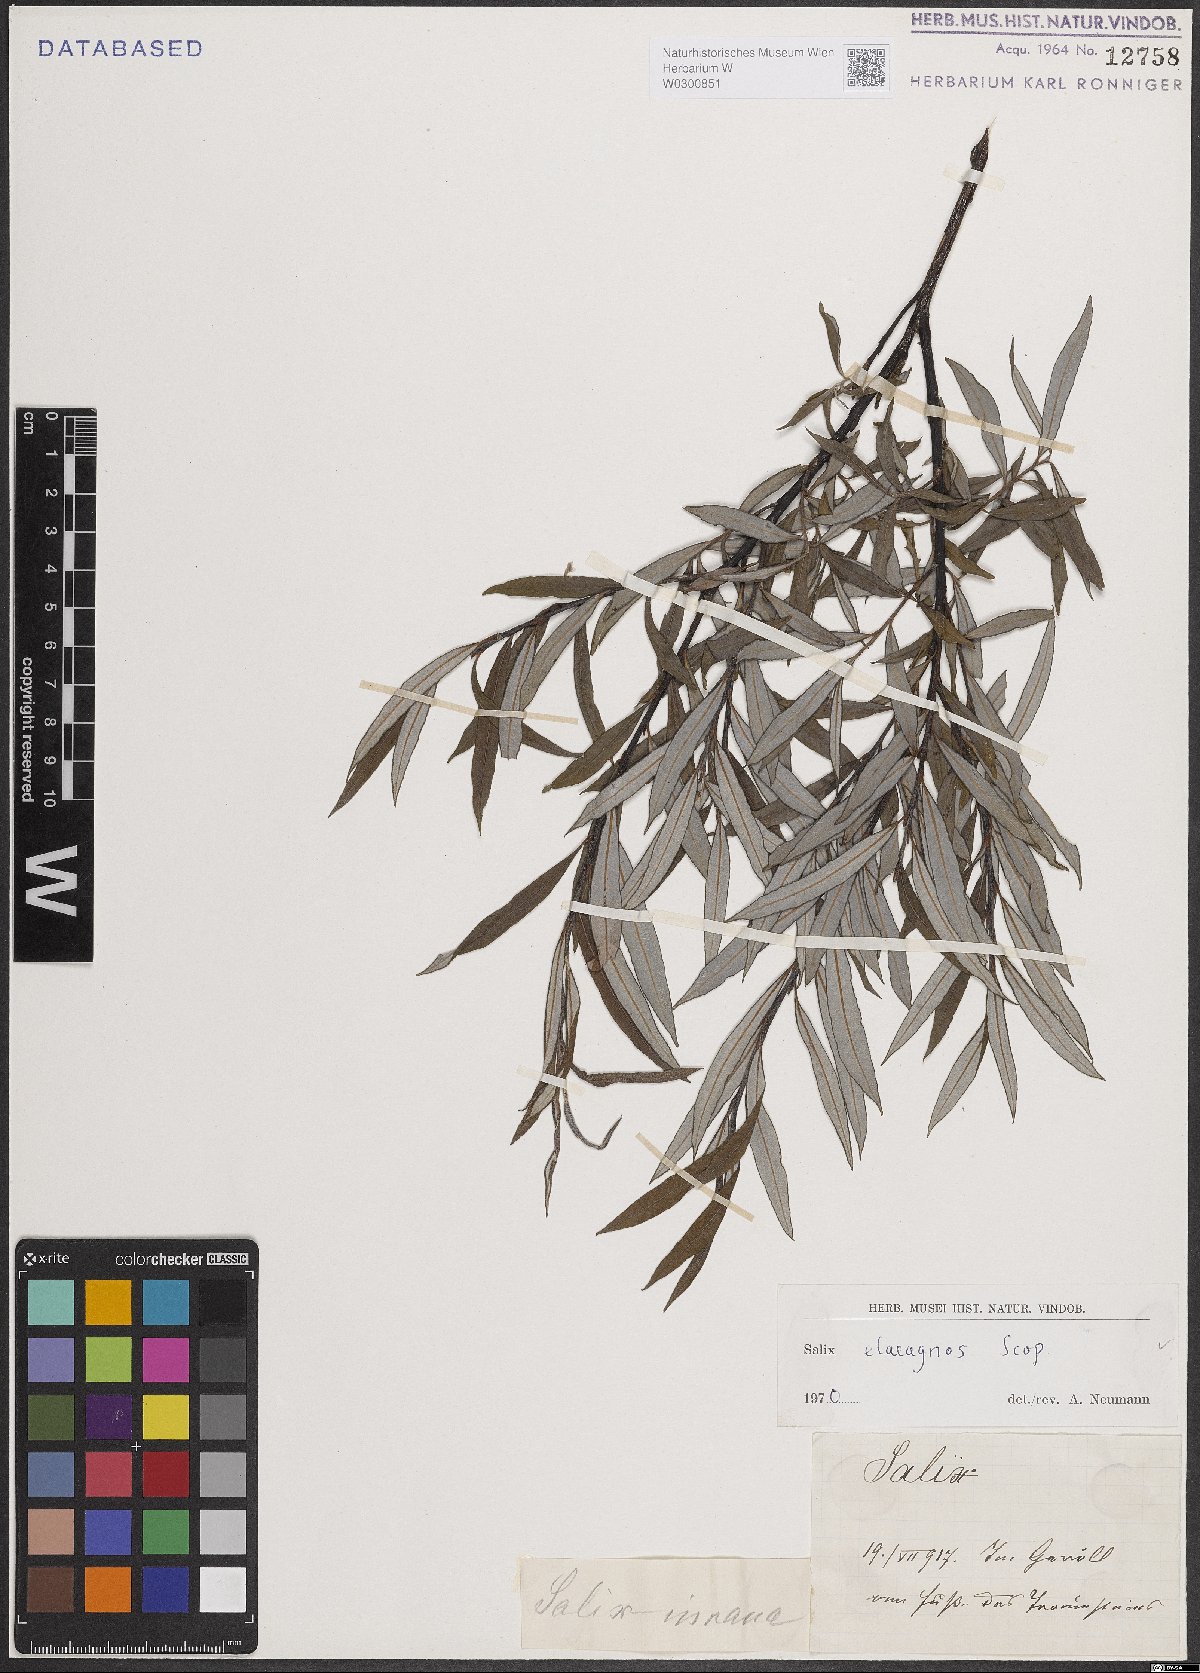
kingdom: Plantae
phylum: Tracheophyta
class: Magnoliopsida
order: Malpighiales
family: Salicaceae
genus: Salix
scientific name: Salix eleagnos
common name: Elaeagnus willow
